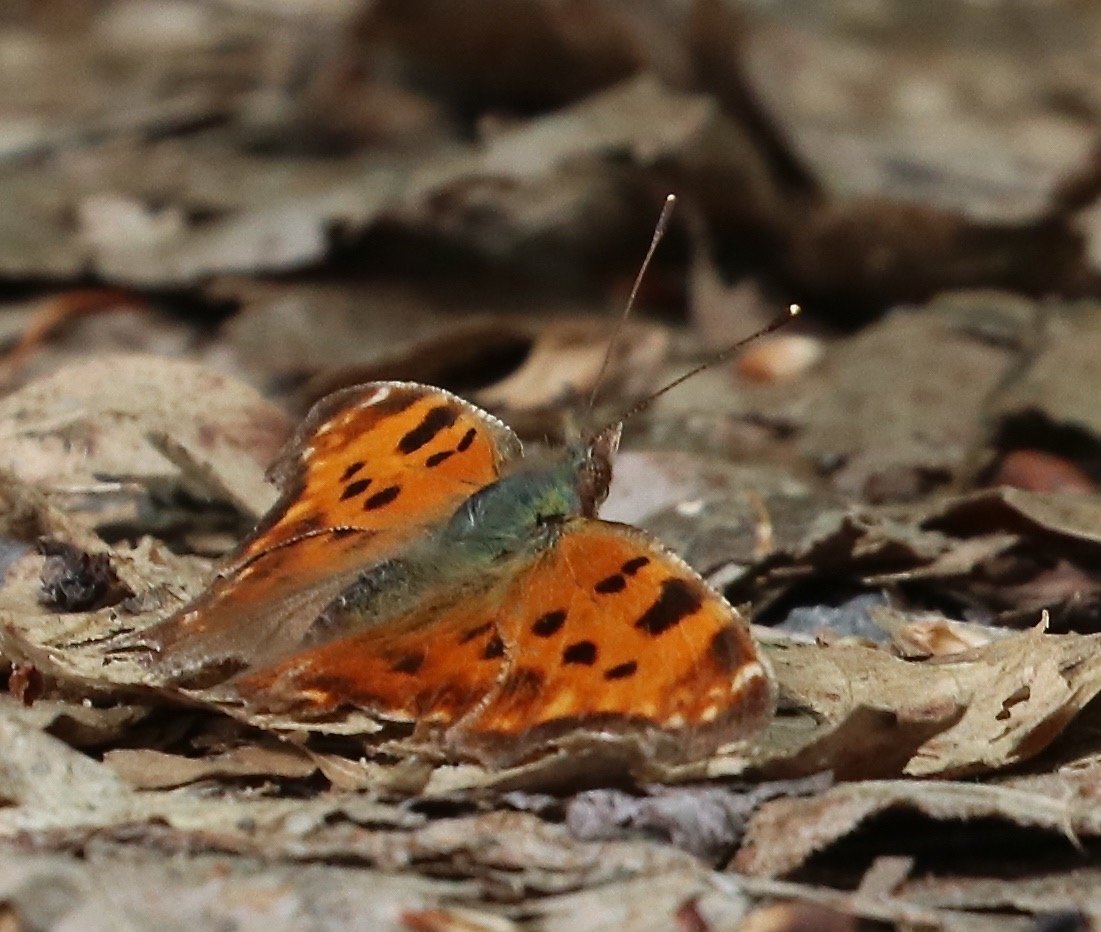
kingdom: Animalia
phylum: Arthropoda
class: Insecta
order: Lepidoptera
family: Nymphalidae
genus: Polygonia
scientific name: Polygonia comma
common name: Eastern Comma
